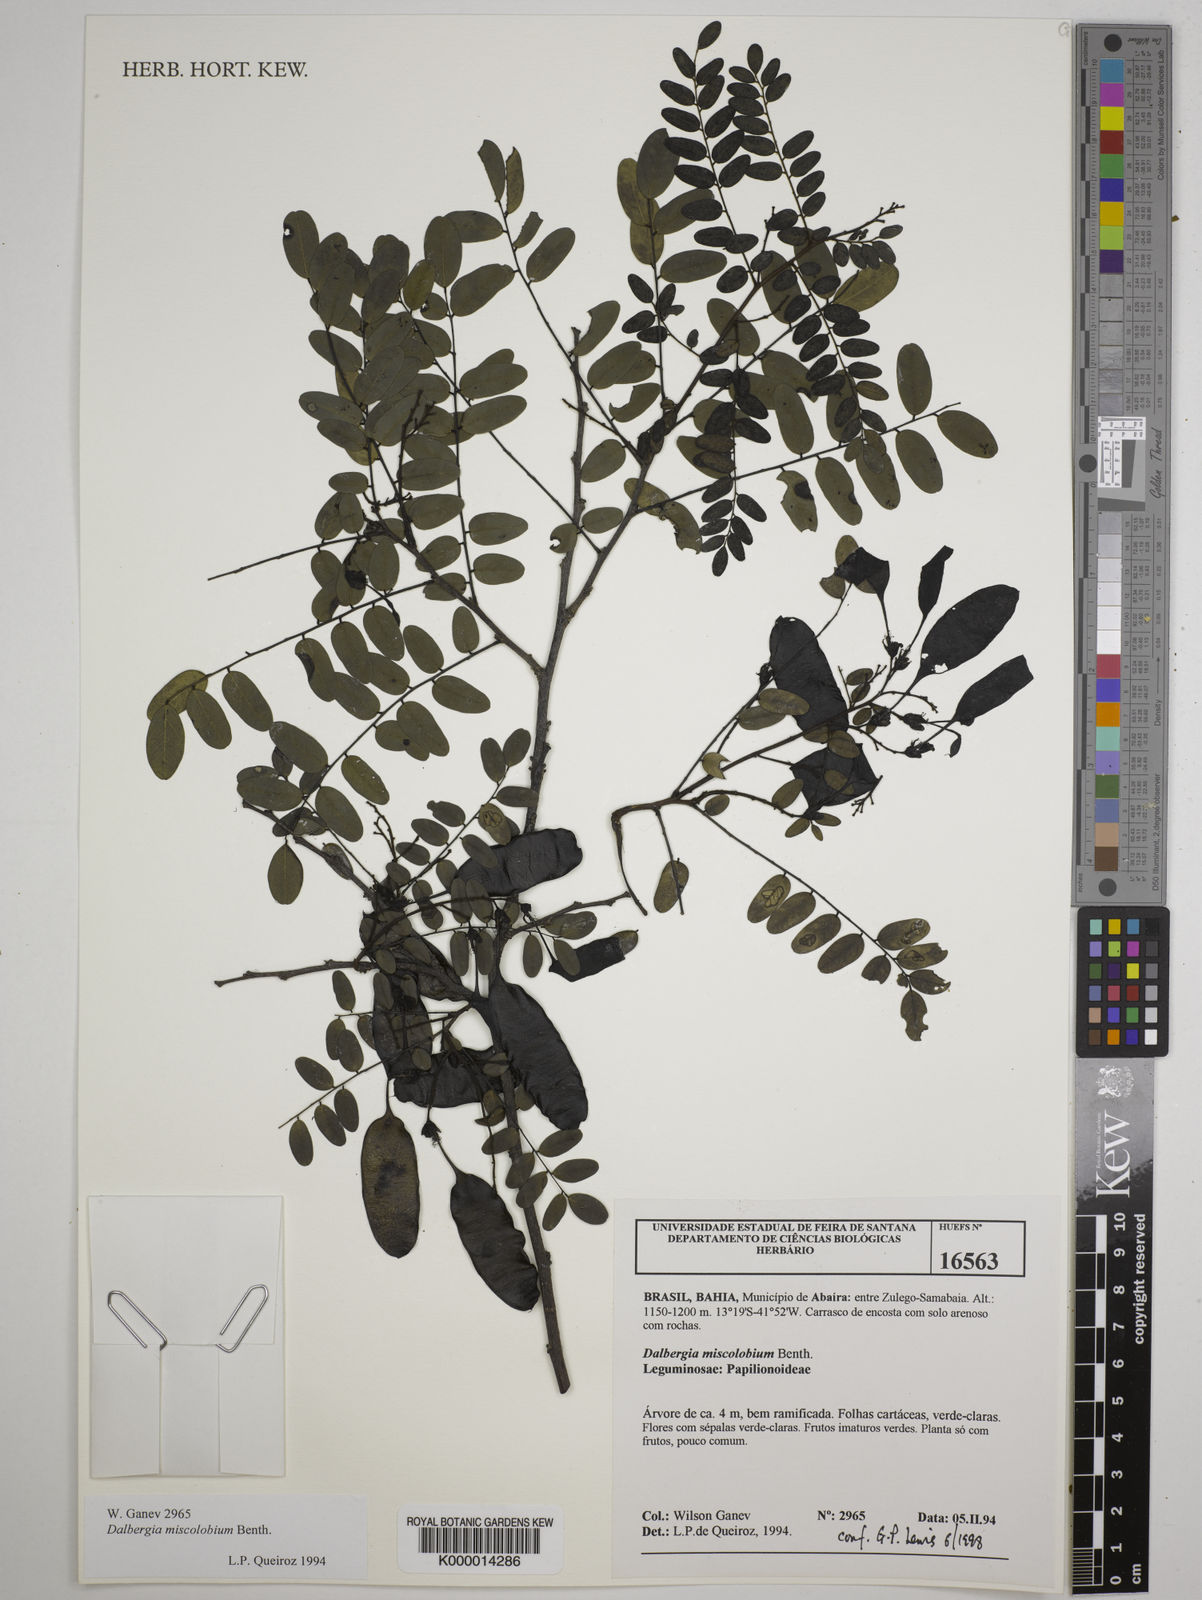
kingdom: Plantae
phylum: Tracheophyta
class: Magnoliopsida
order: Fabales
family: Fabaceae
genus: Dalbergia
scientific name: Dalbergia miscolobium
